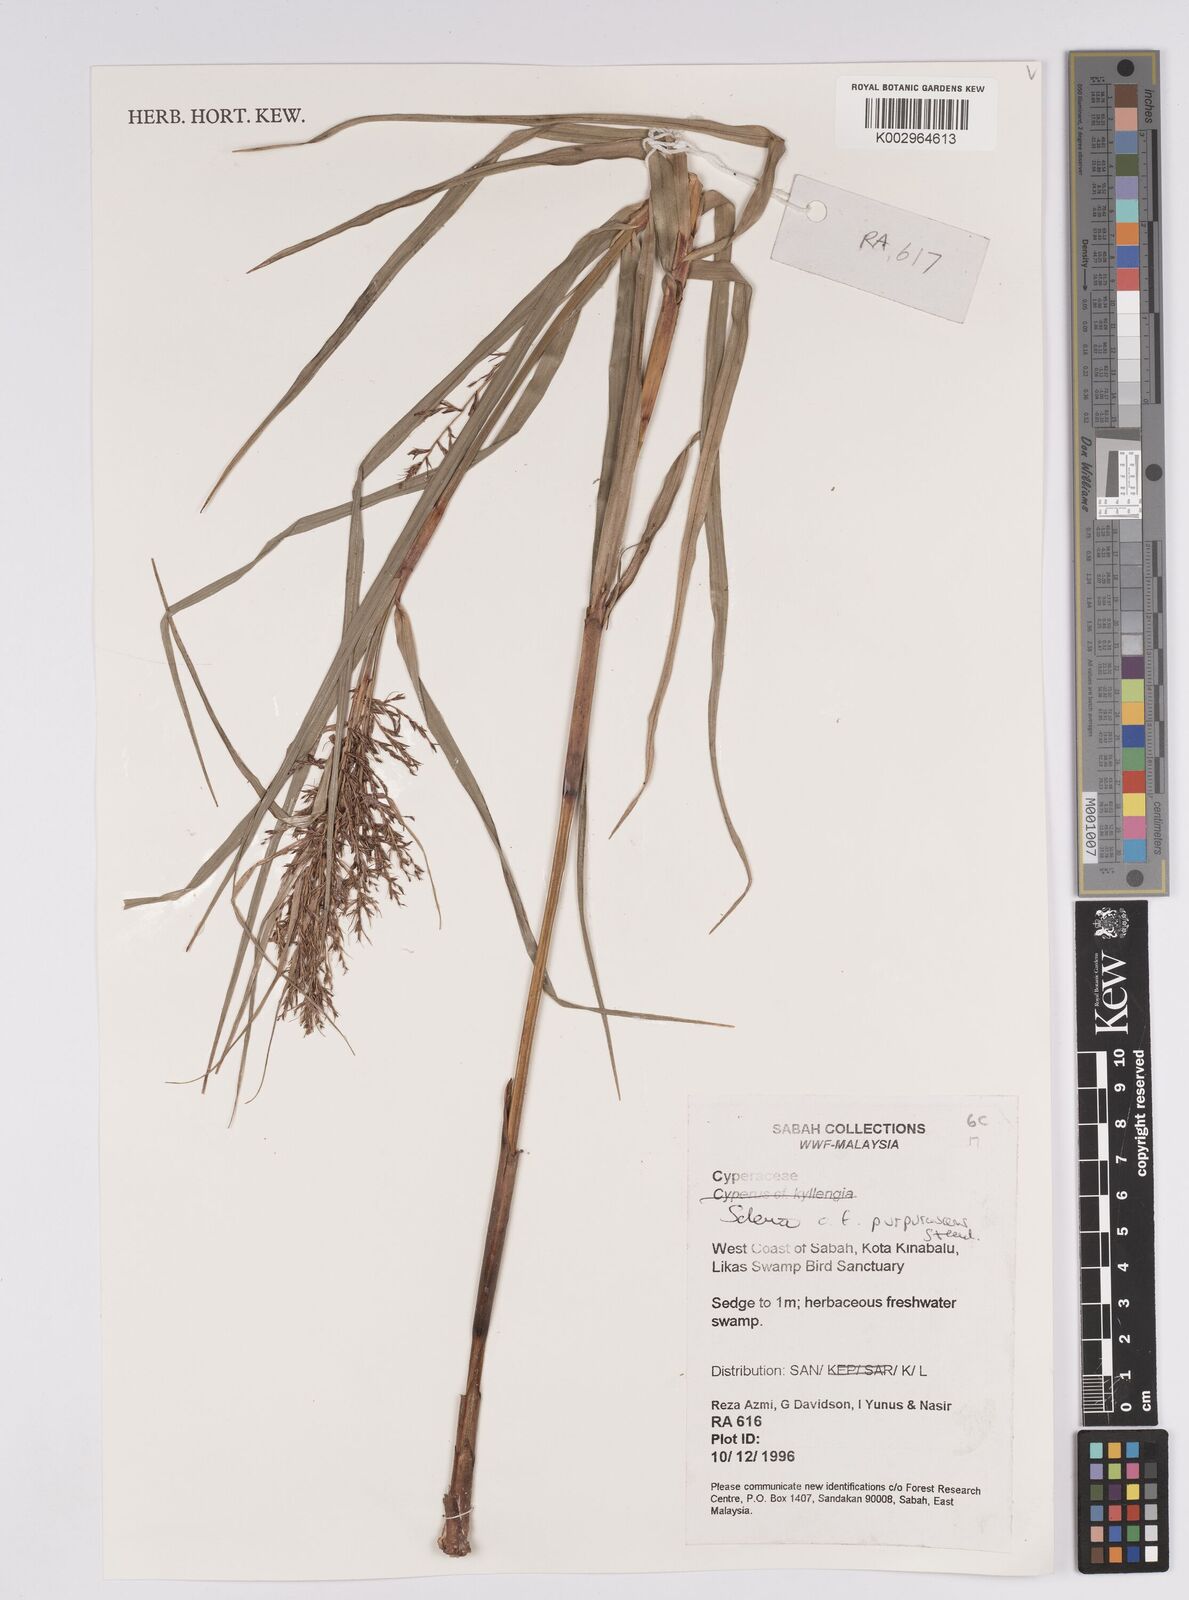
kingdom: Plantae
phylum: Tracheophyta
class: Liliopsida
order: Poales
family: Cyperaceae
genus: Scleria
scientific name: Scleria purpurascens
